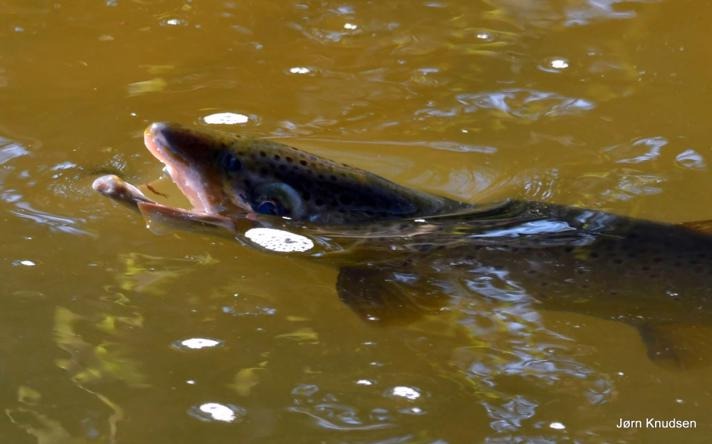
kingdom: Animalia
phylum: Chordata
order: Salmoniformes
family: Salmonidae
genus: Salmo
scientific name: Salmo trutta
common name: Ørred
